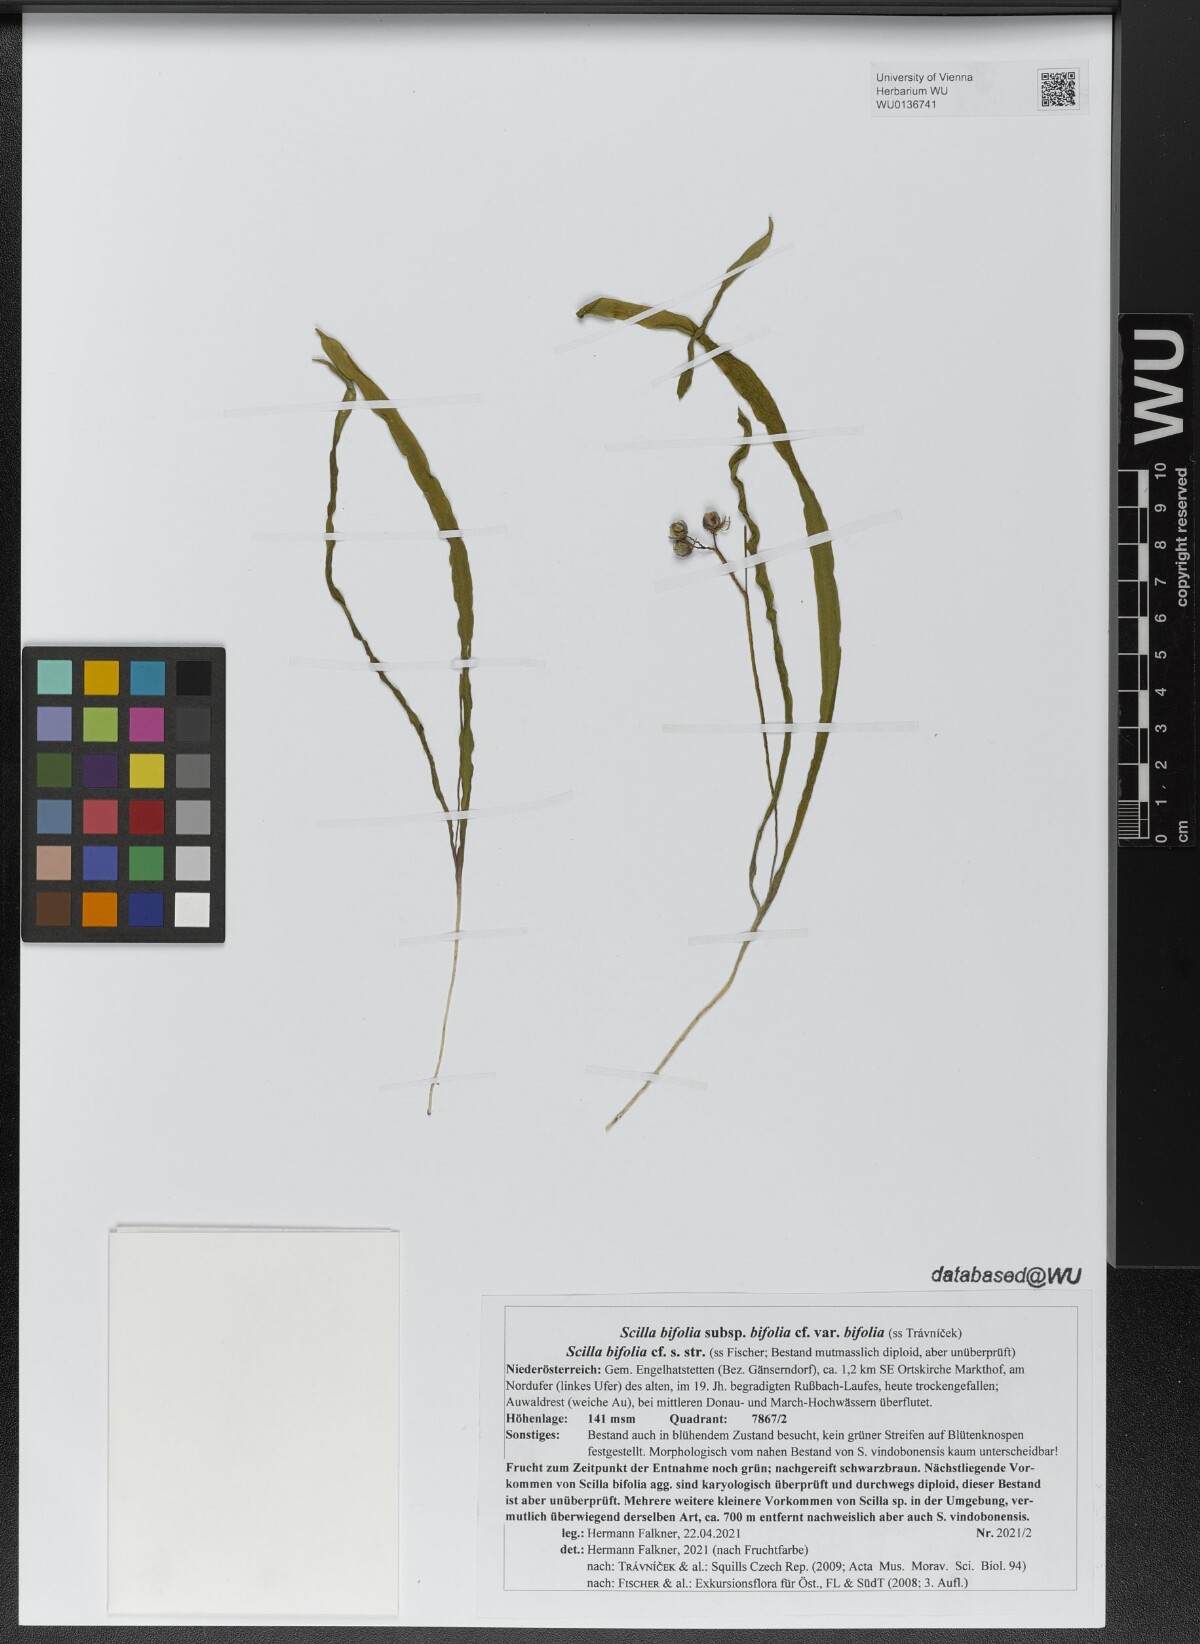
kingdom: Plantae
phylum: Tracheophyta
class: Liliopsida
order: Asparagales
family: Asparagaceae
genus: Scilla
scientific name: Scilla bifolia
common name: Alpine squill
